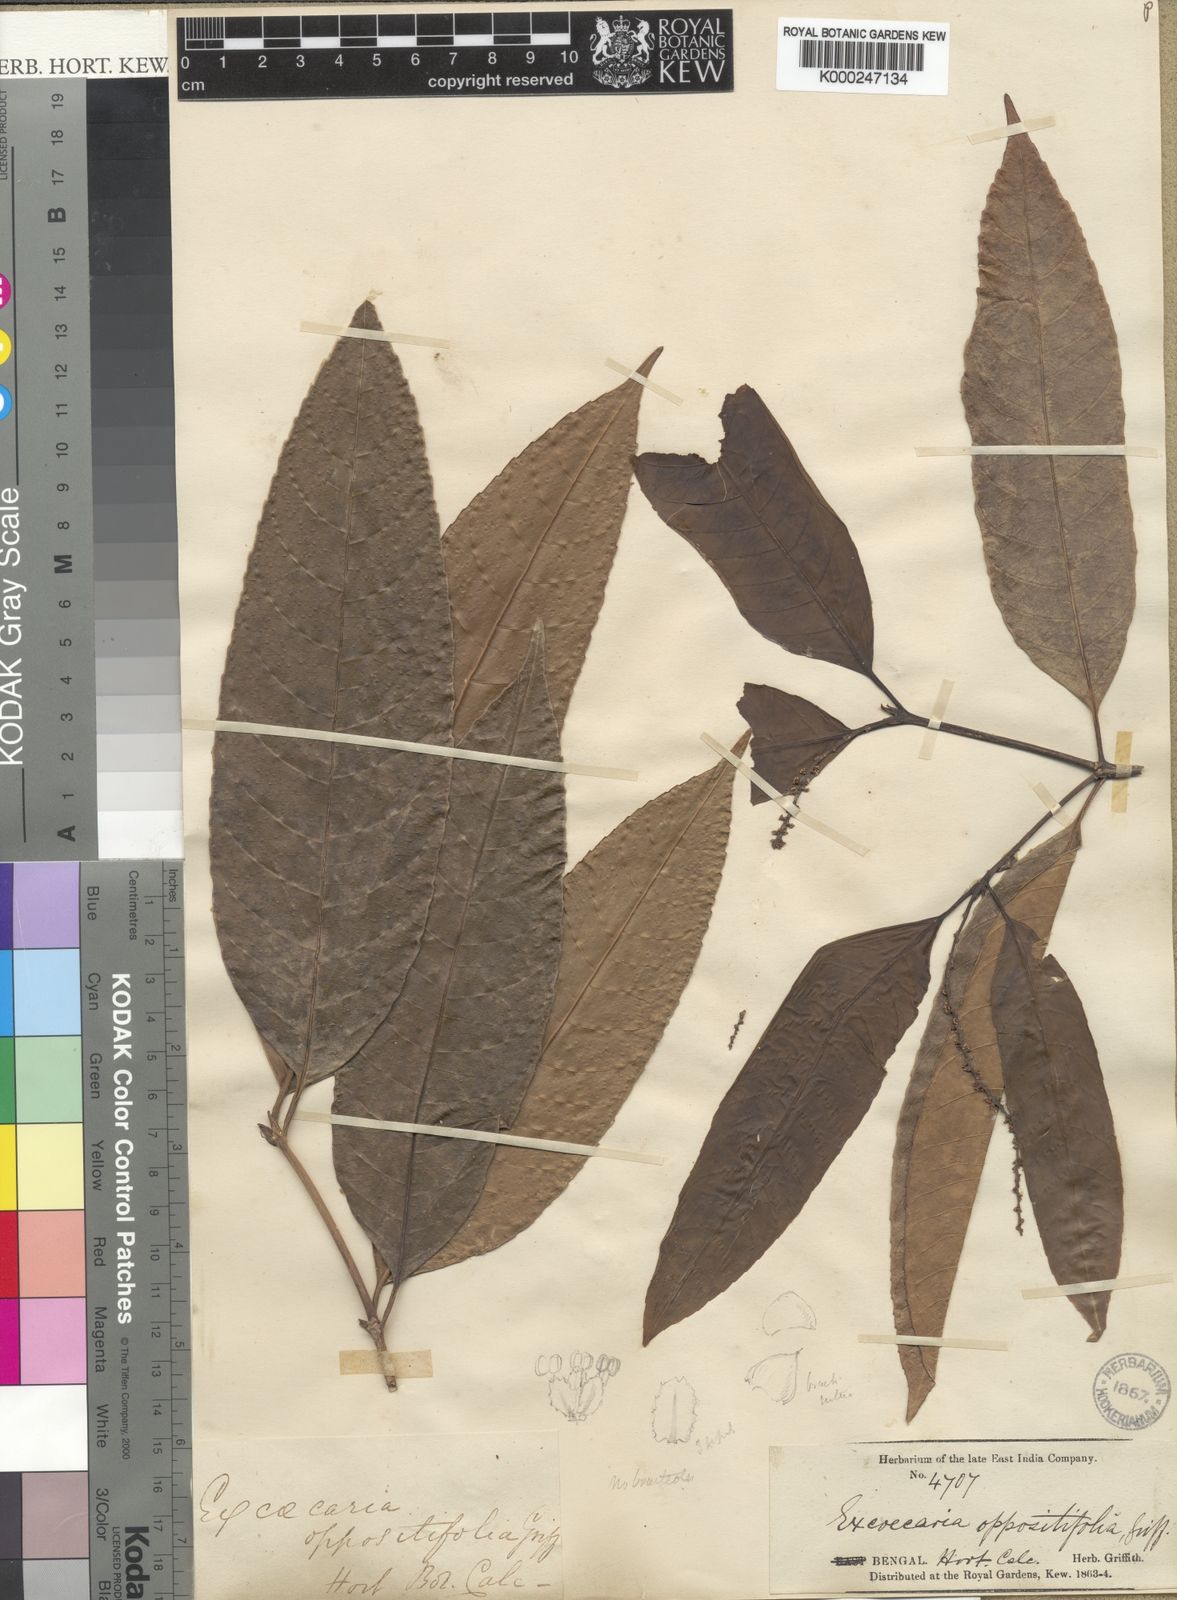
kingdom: Plantae
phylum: Tracheophyta
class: Magnoliopsida
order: Malpighiales
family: Euphorbiaceae
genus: Excoecaria
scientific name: Excoecaria oppositifolia
